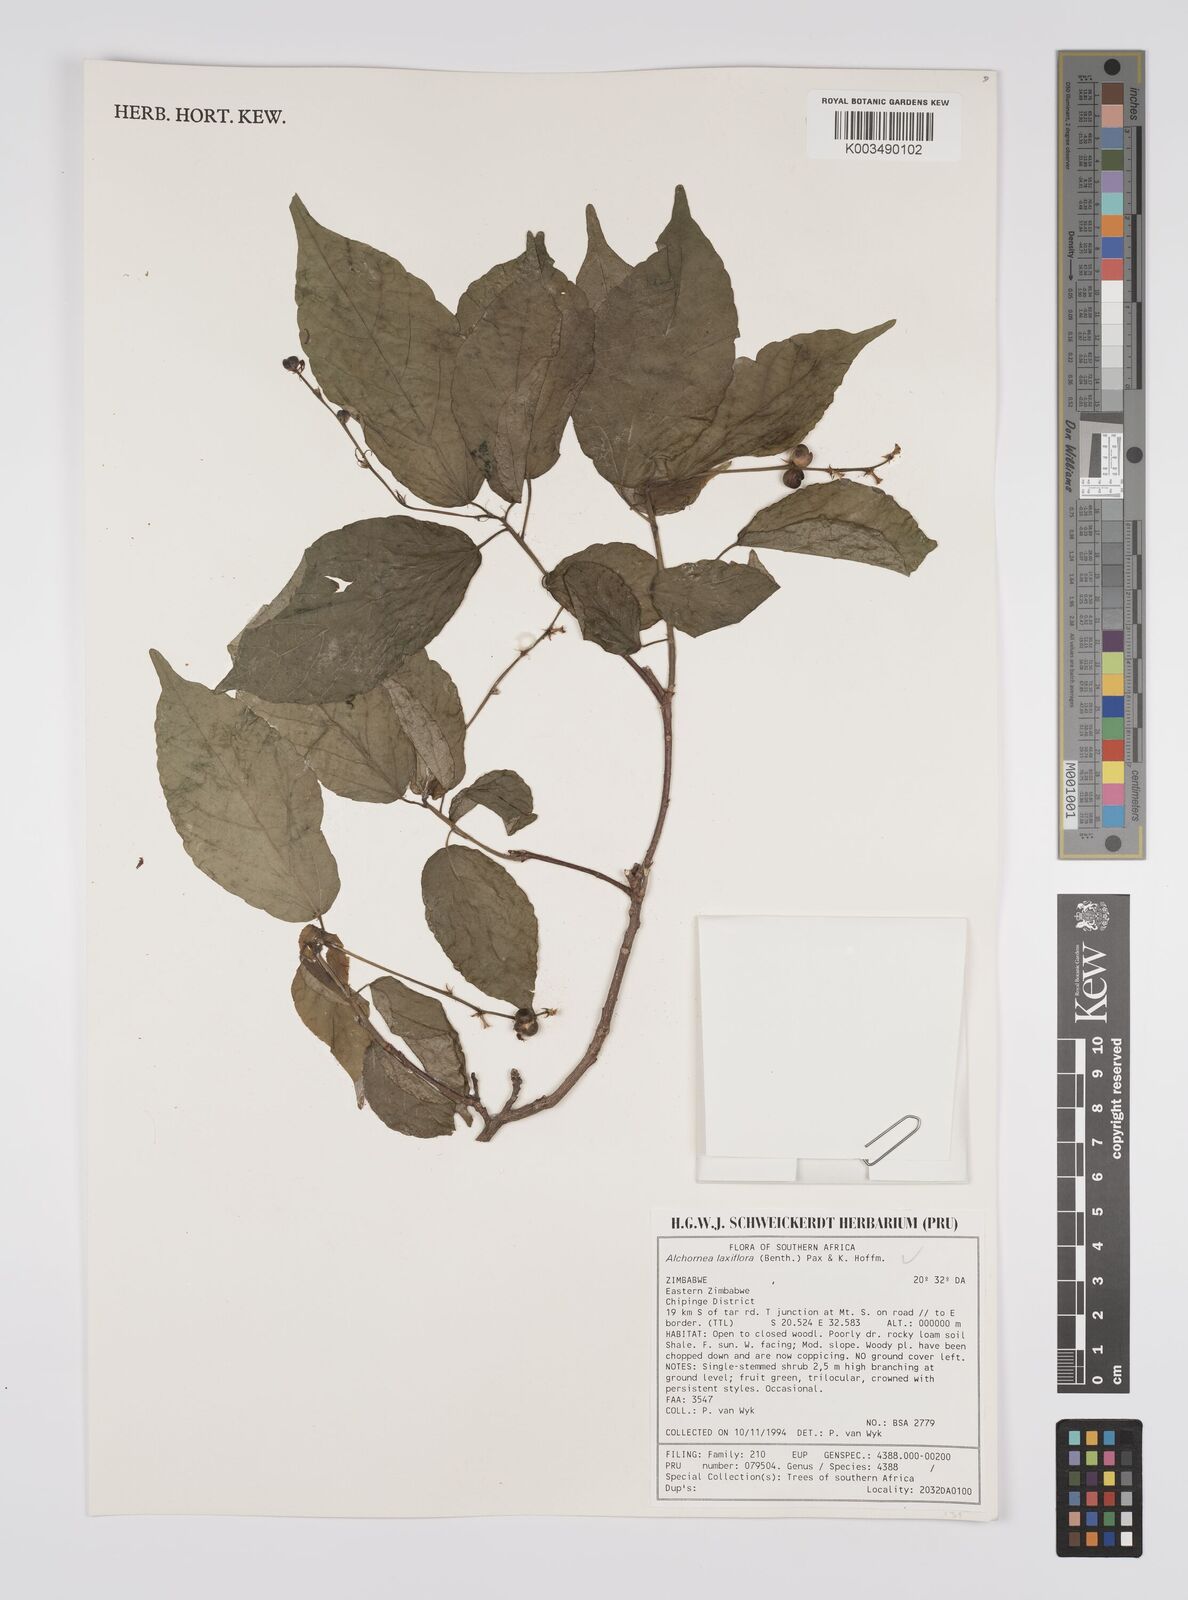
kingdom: Plantae
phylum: Tracheophyta
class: Magnoliopsida
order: Malpighiales
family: Euphorbiaceae
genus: Alchornea
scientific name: Alchornea laxiflora
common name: Lowveld bead-string
